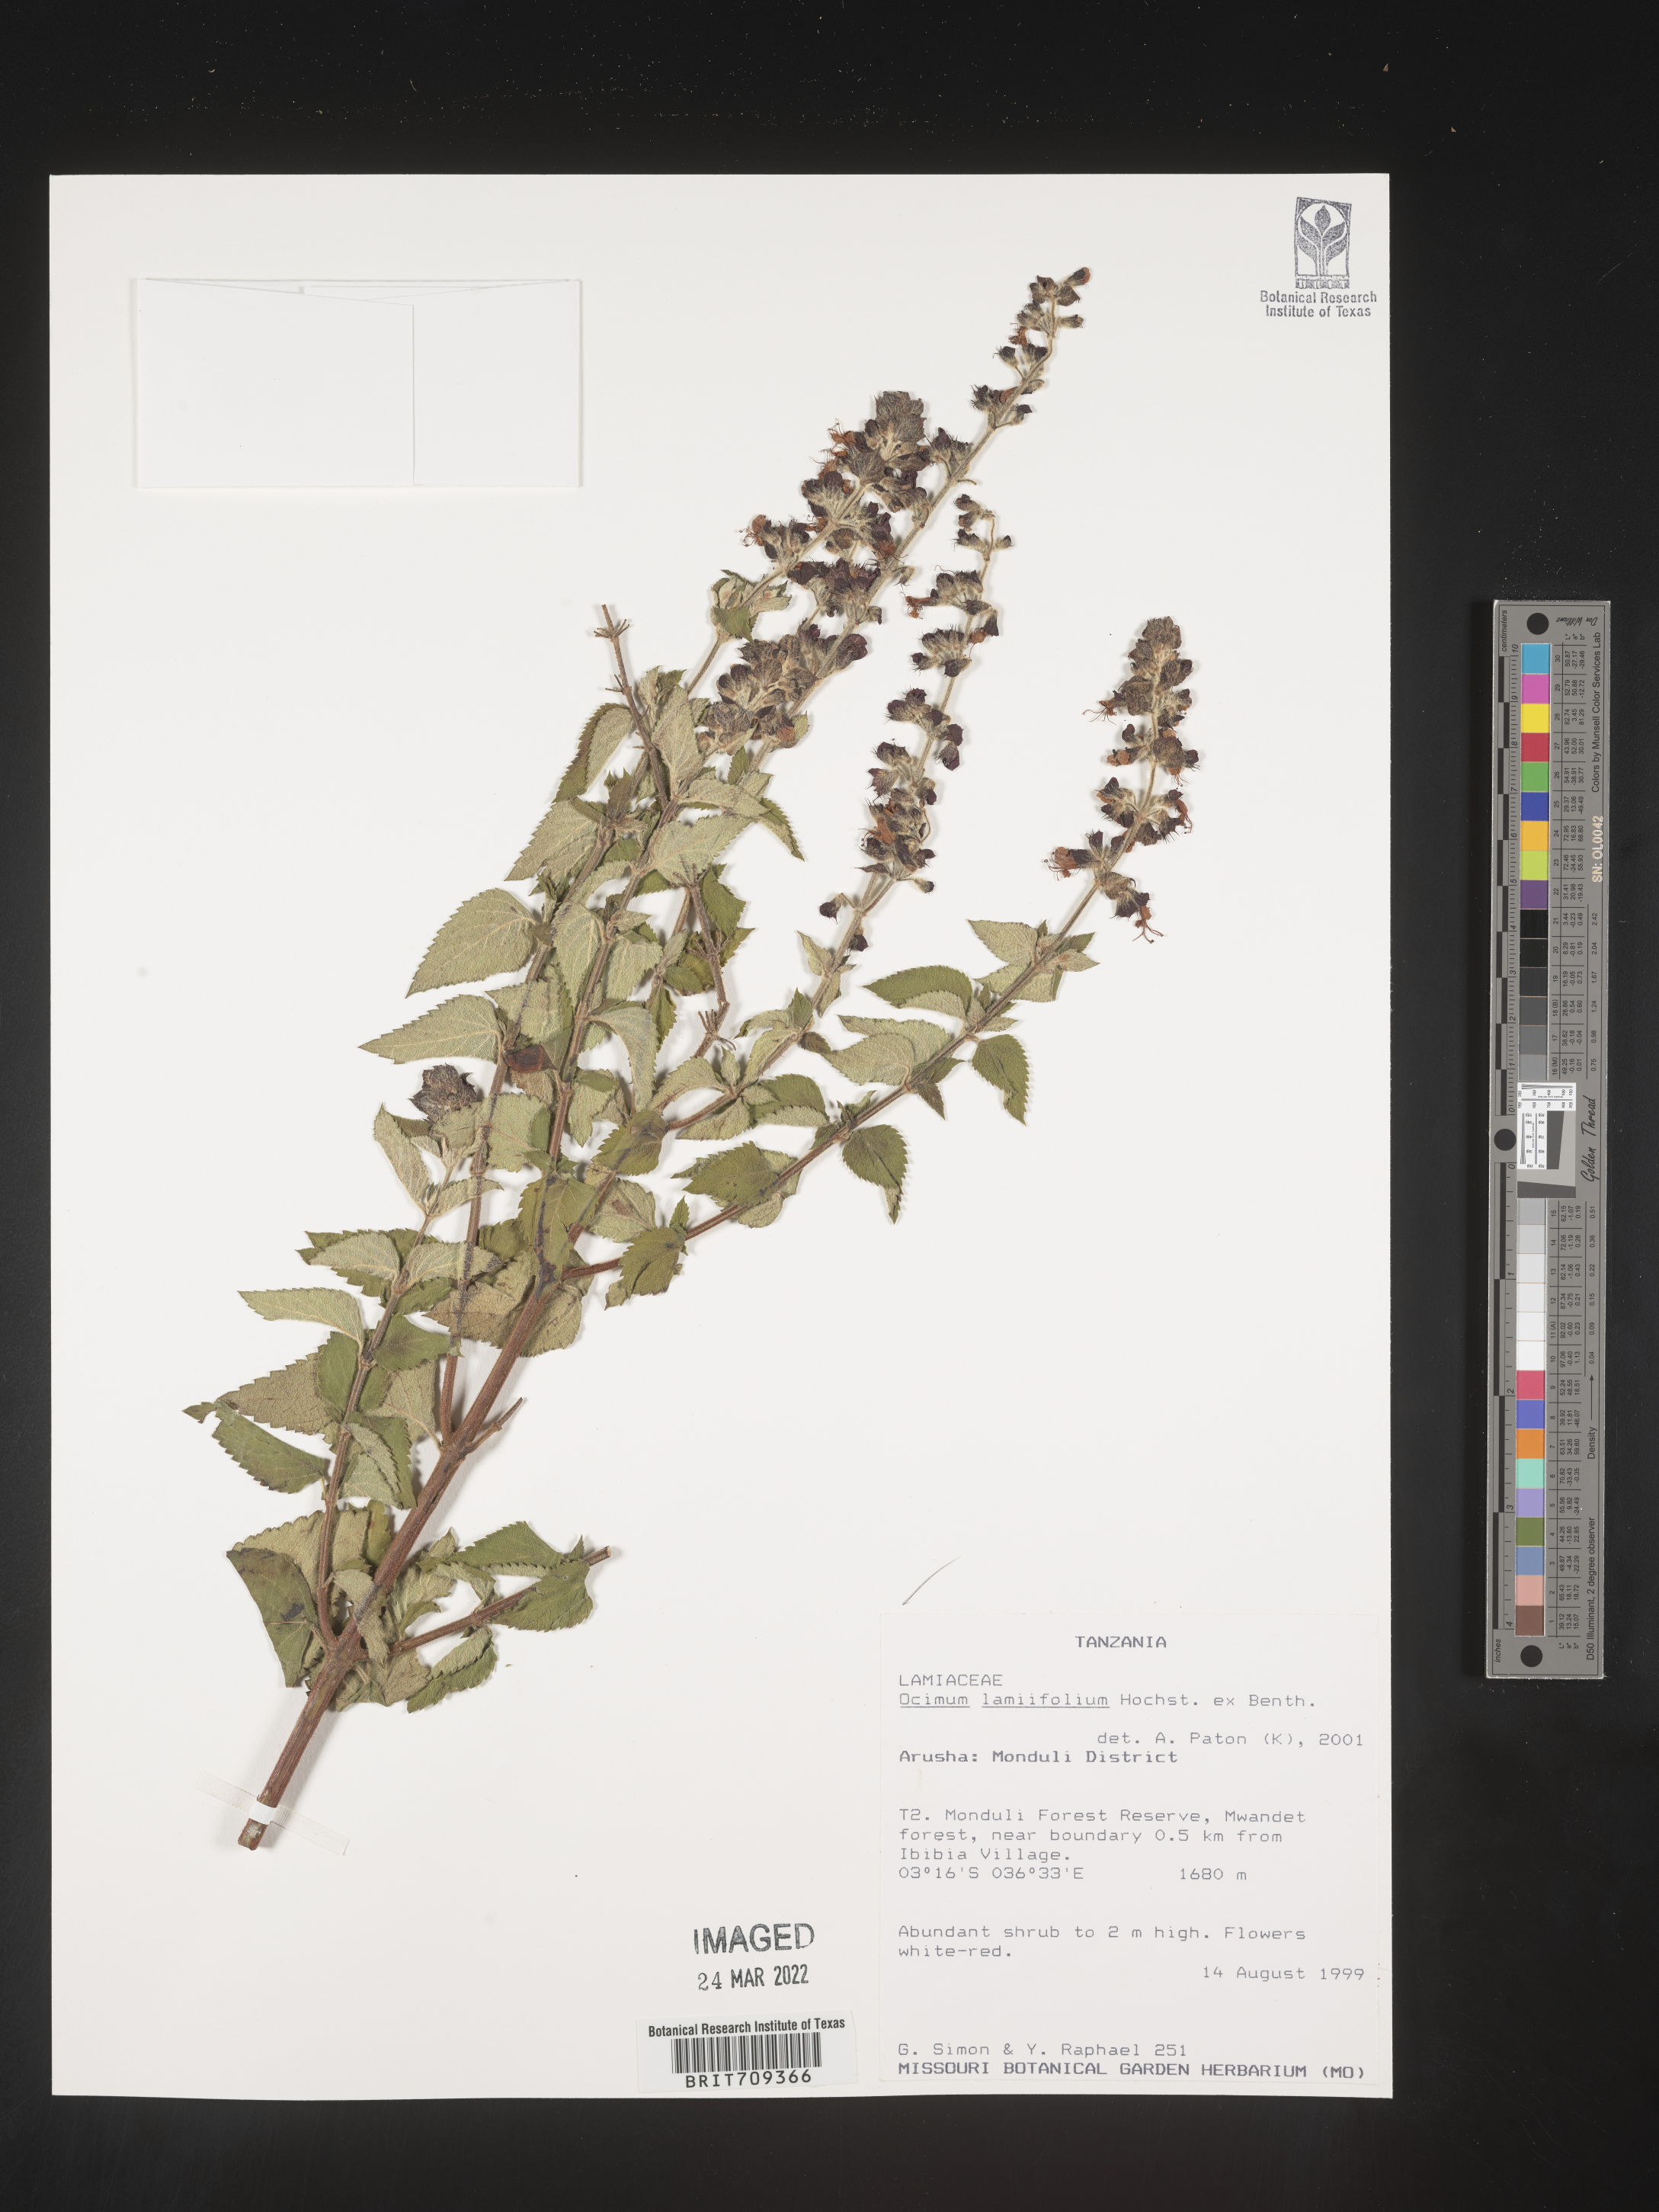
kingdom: Plantae
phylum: Tracheophyta
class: Magnoliopsida
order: Lamiales
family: Lamiaceae
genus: Ocimum
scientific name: Ocimum
